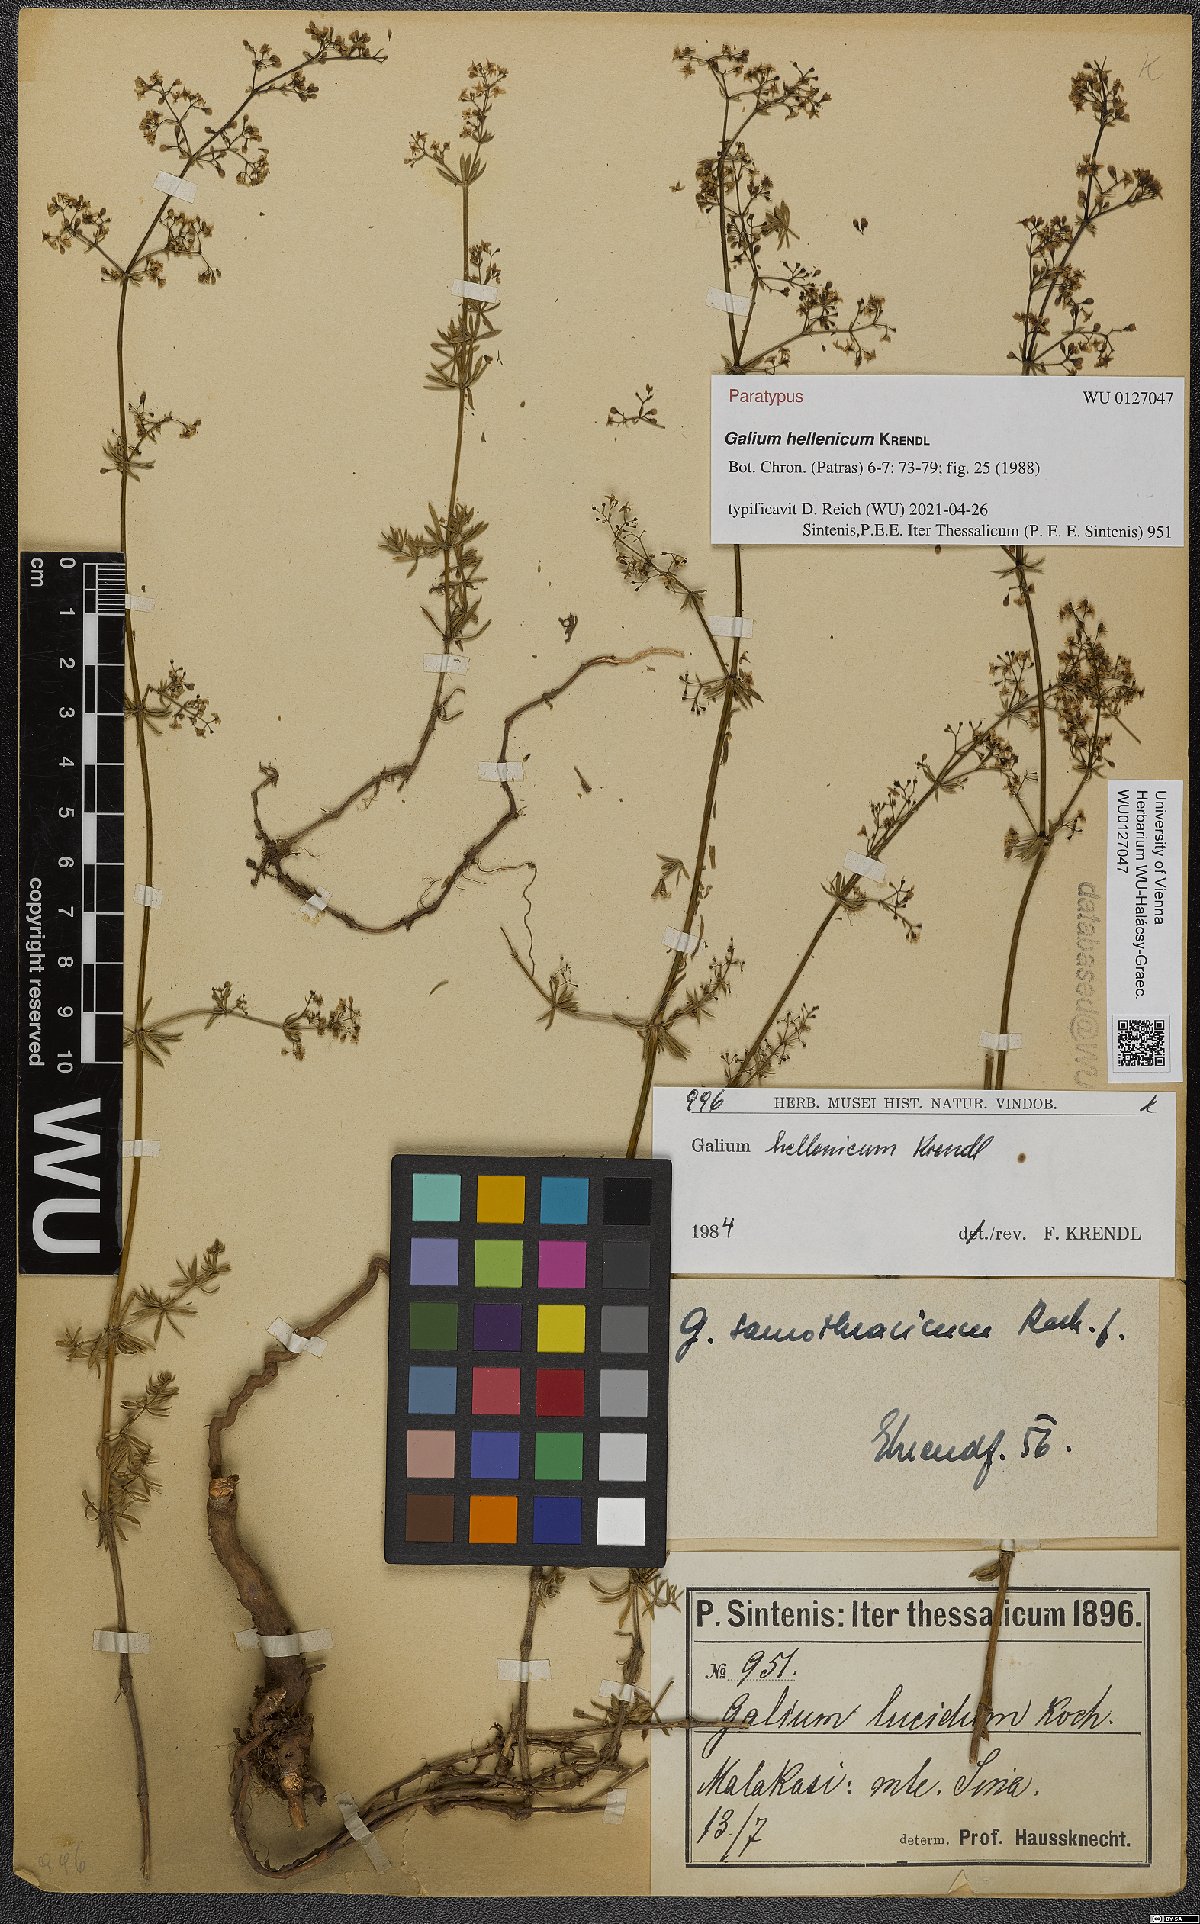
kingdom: Plantae
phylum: Tracheophyta
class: Magnoliopsida
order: Gentianales
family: Rubiaceae
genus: Galium
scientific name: Galium hellenicum
